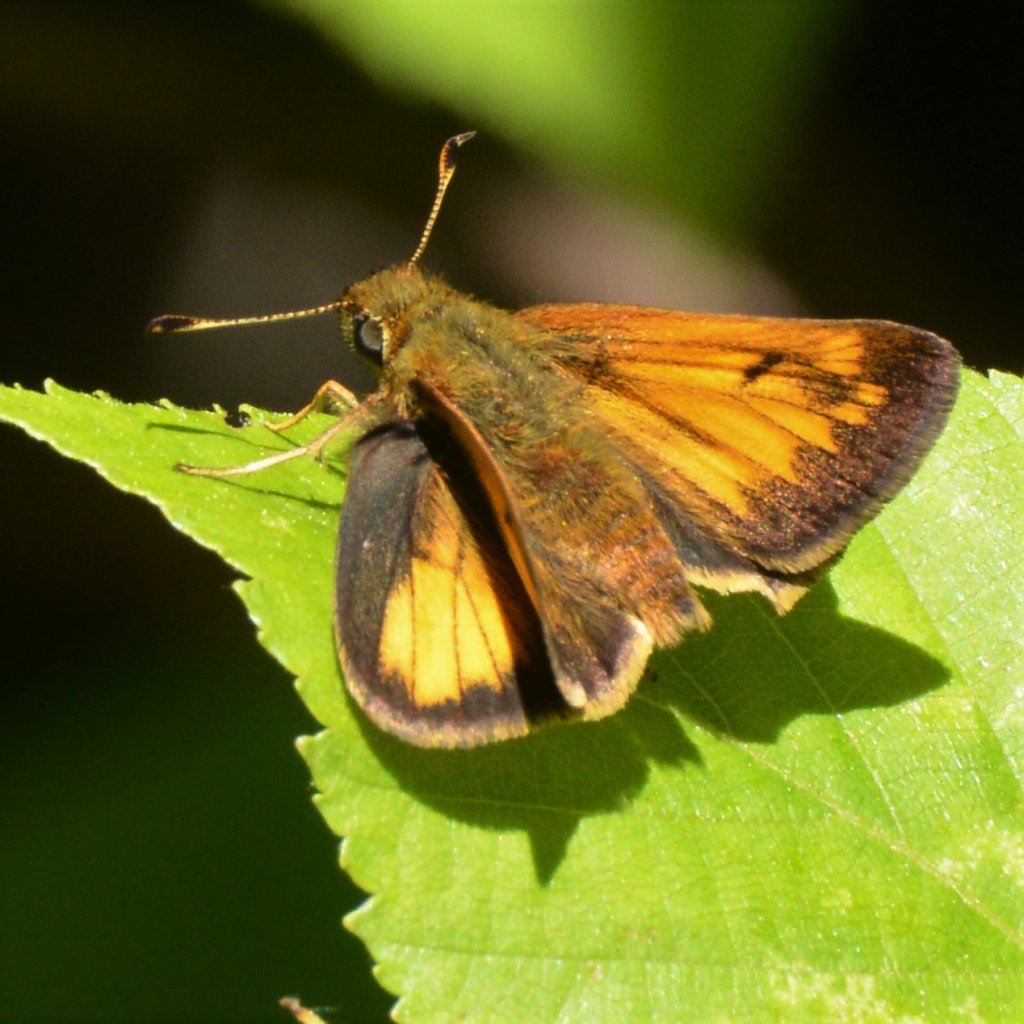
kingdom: Animalia
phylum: Arthropoda
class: Insecta
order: Lepidoptera
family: Hesperiidae
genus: Lon
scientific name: Lon hobomok
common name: Hobomok Skipper
